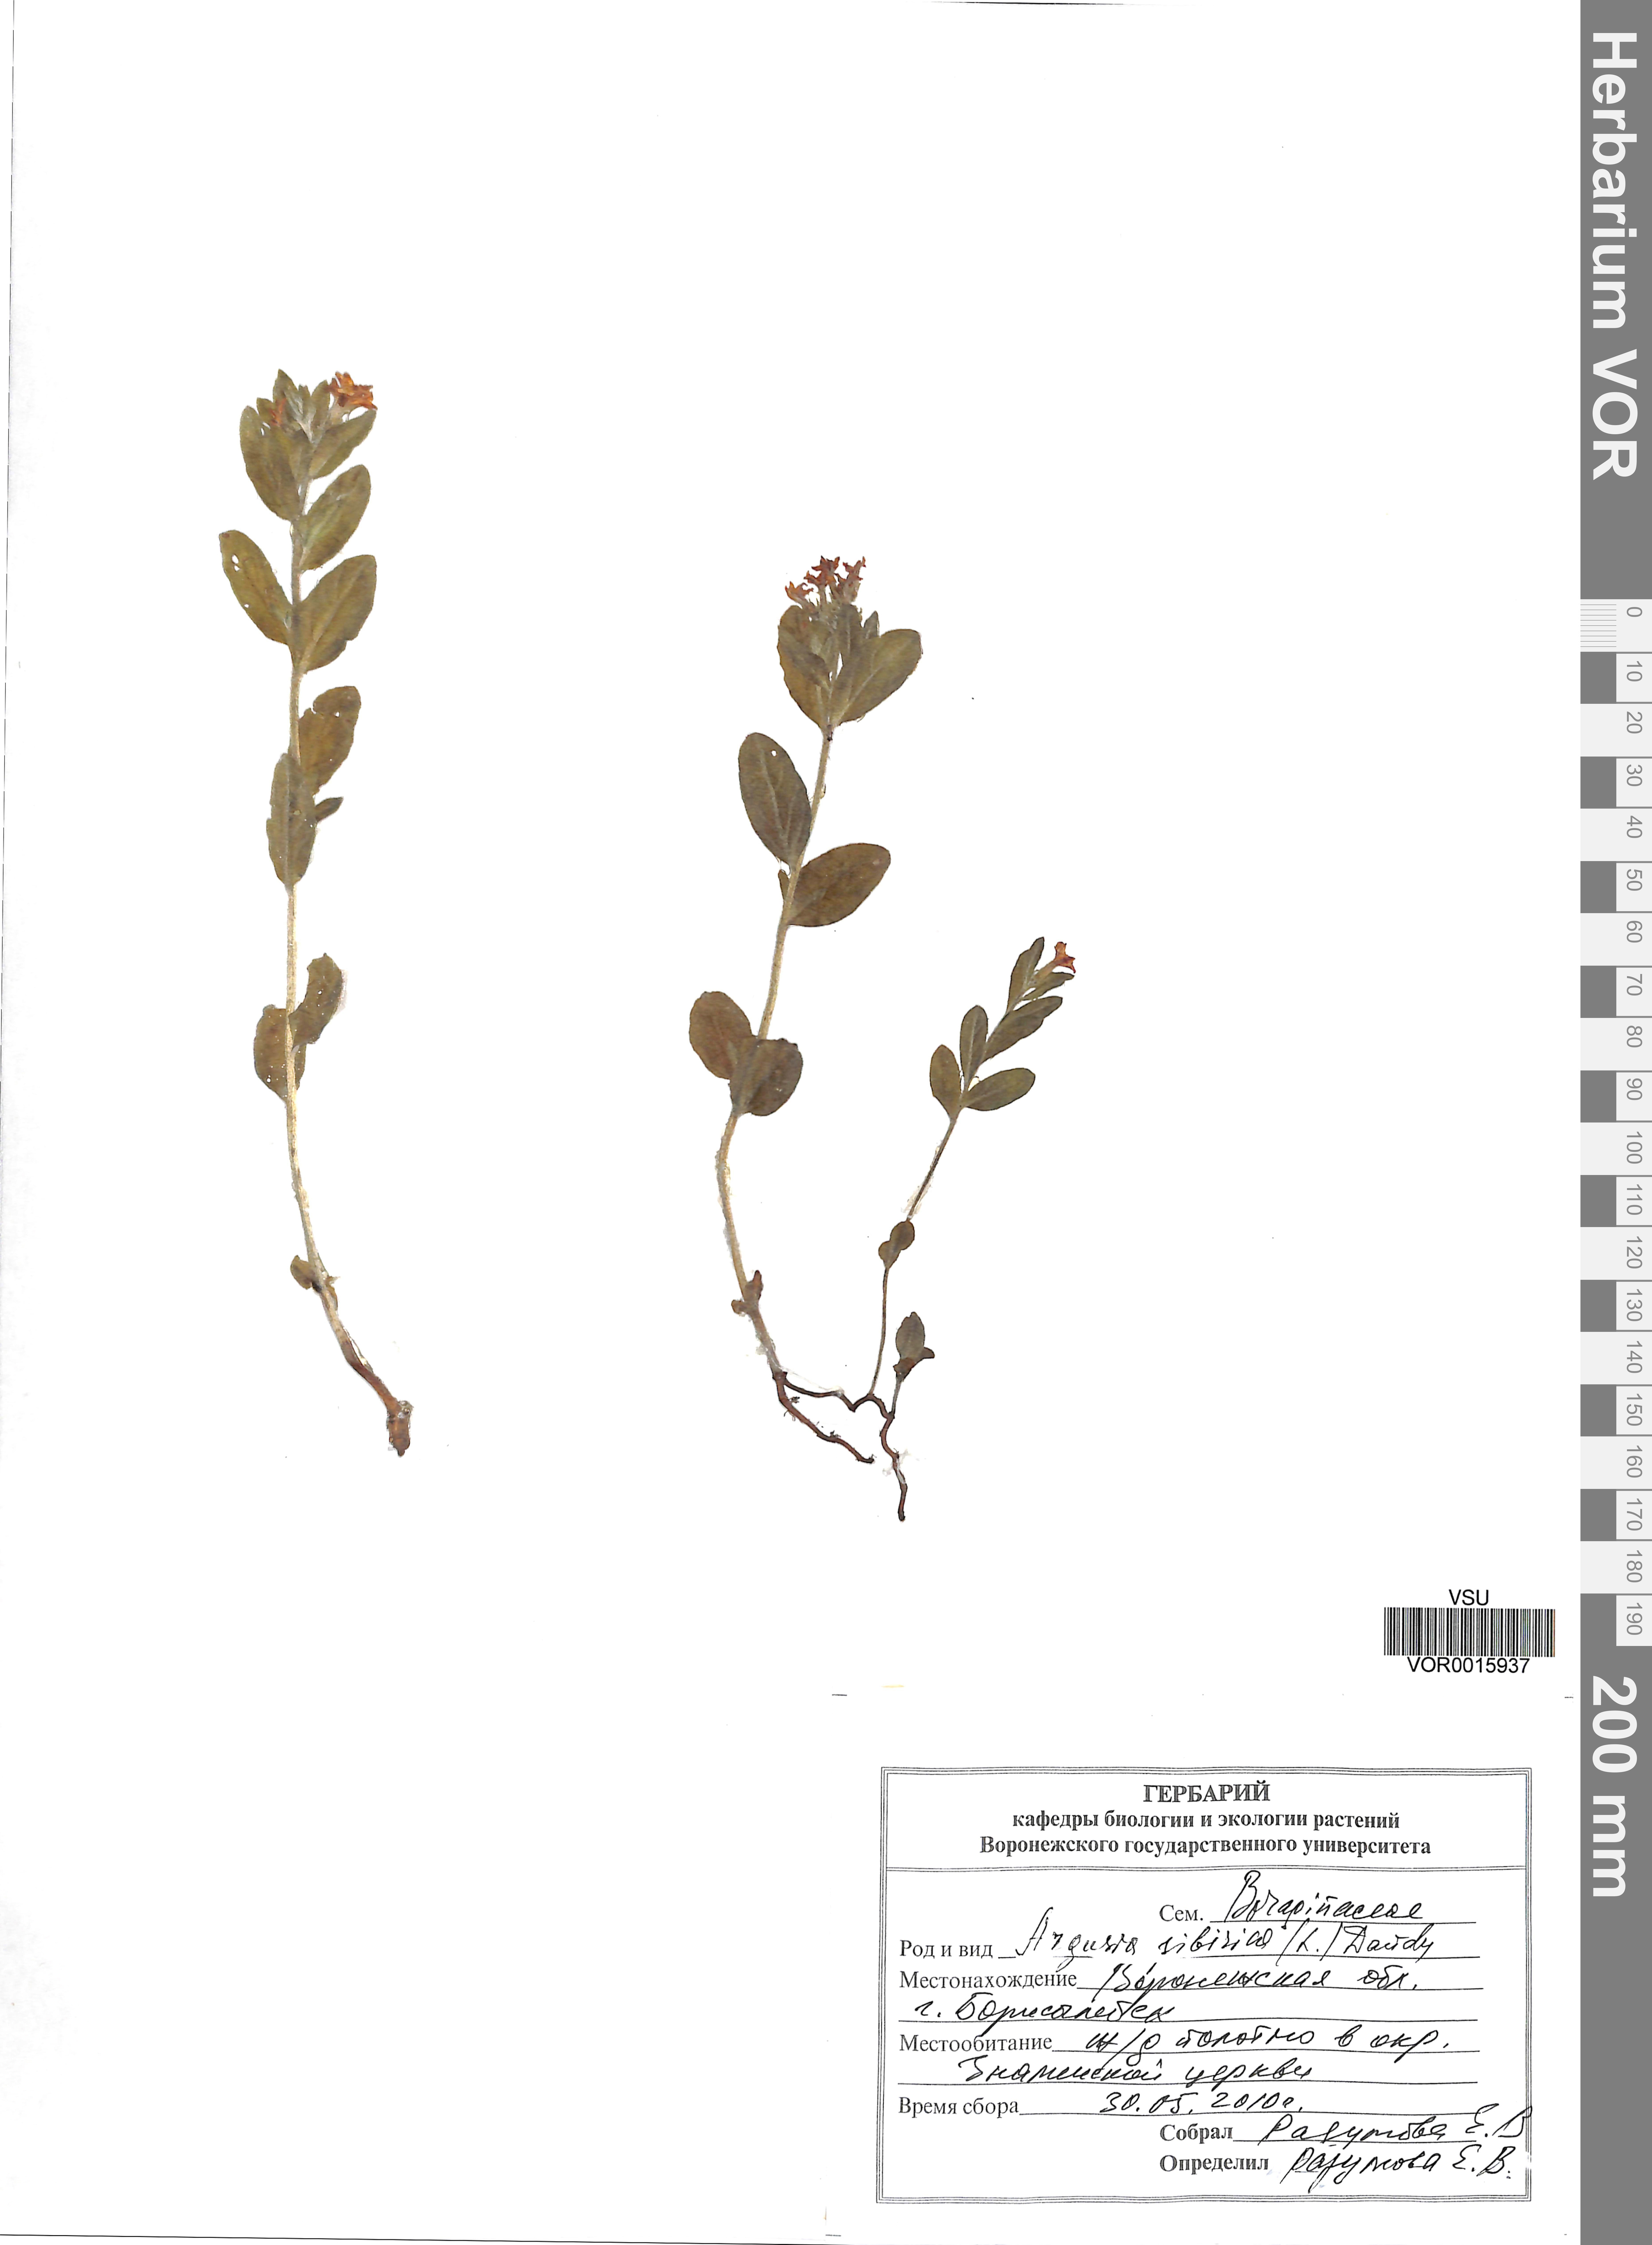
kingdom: Plantae
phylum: Tracheophyta
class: Magnoliopsida
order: Boraginales
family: Heliotropiaceae
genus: Tournefortia
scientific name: Tournefortia sibirica
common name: Siberian sea rosemary
